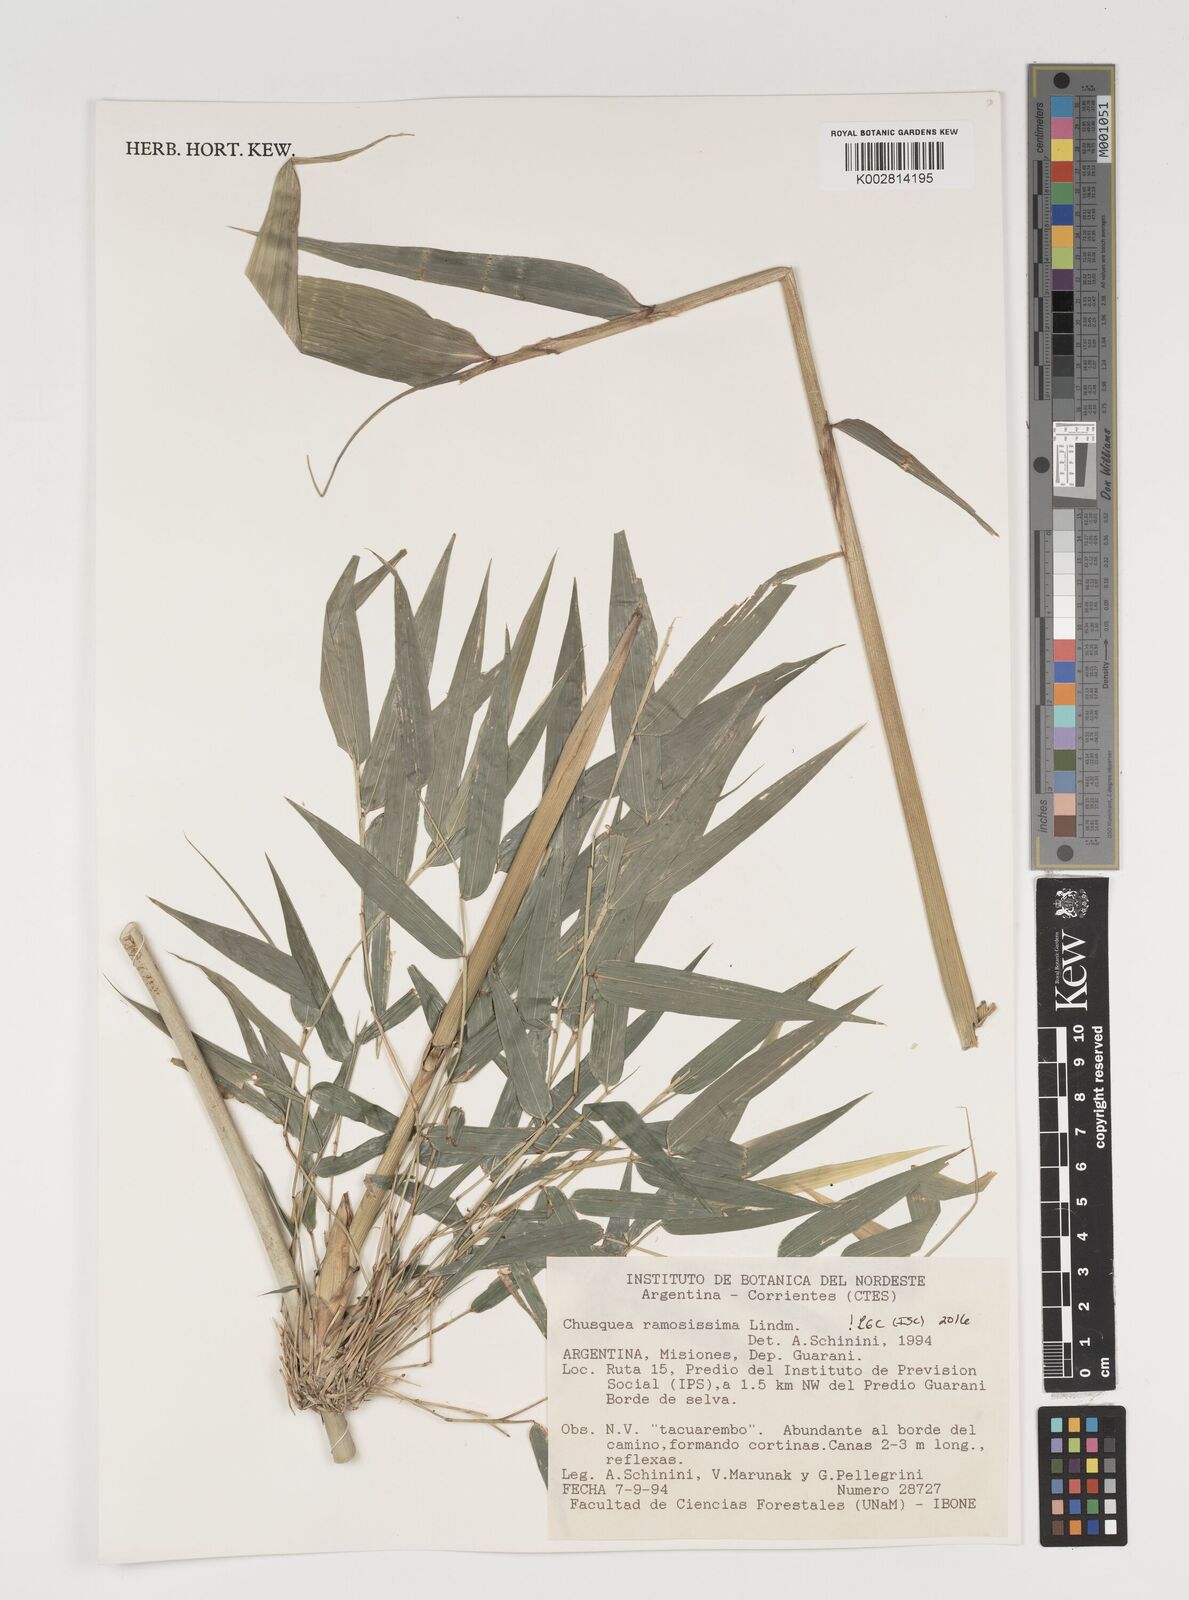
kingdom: Plantae
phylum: Tracheophyta
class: Liliopsida
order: Poales
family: Poaceae
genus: Chusquea
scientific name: Chusquea ramosissima
